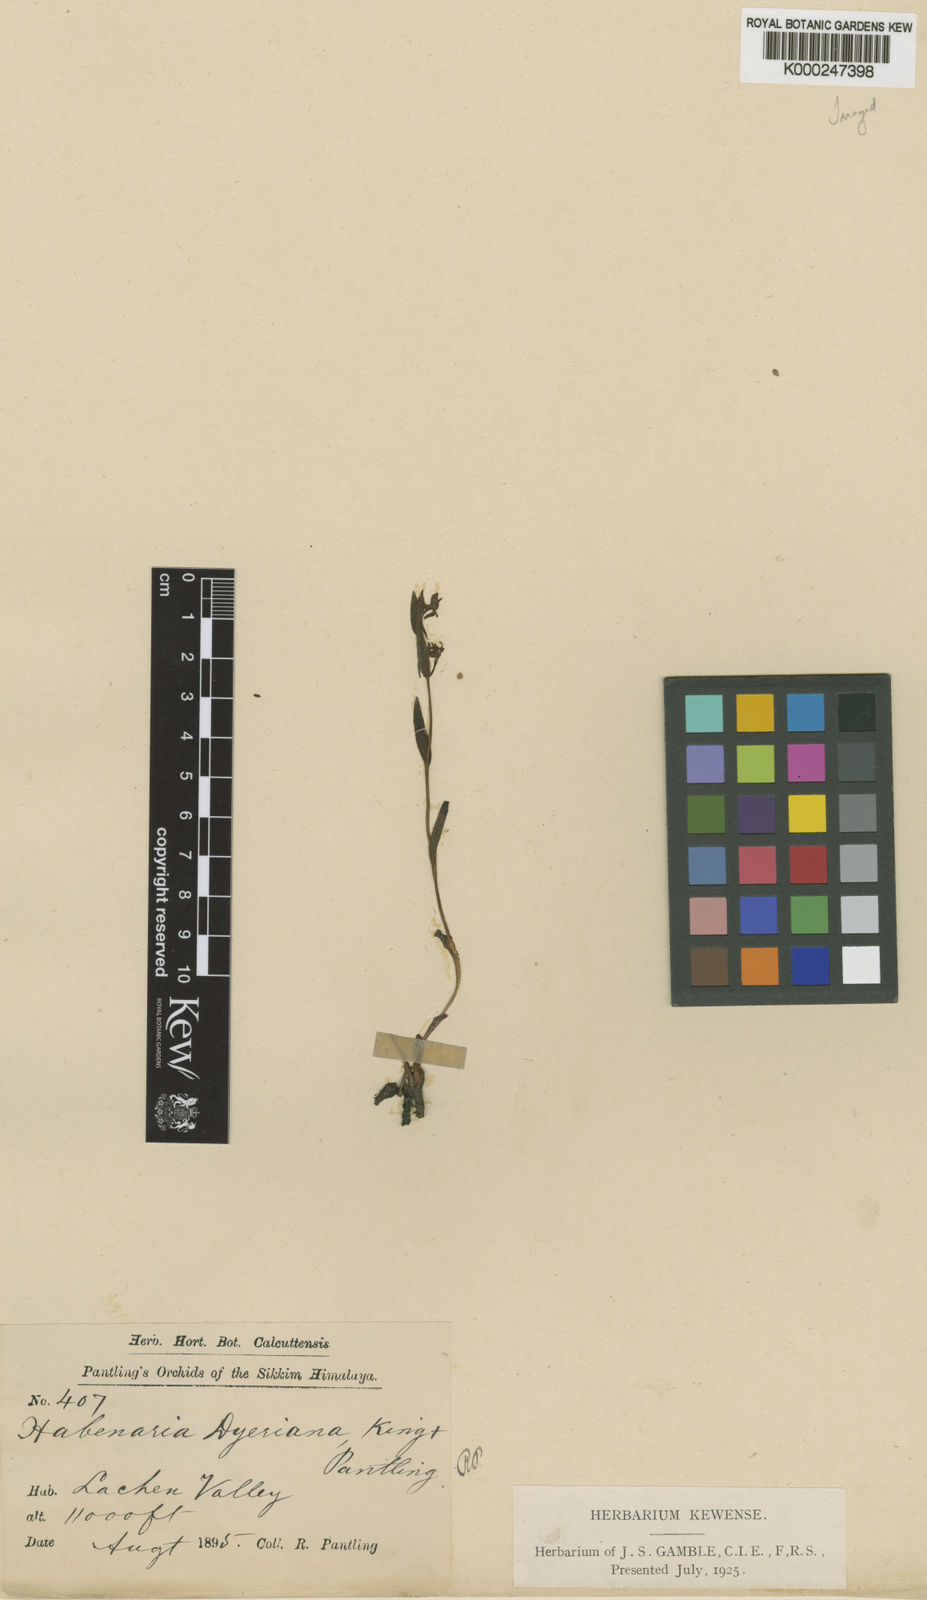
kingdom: Plantae
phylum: Tracheophyta
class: Liliopsida
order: Asparagales
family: Orchidaceae
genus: Platanthera
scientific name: Platanthera concinna
